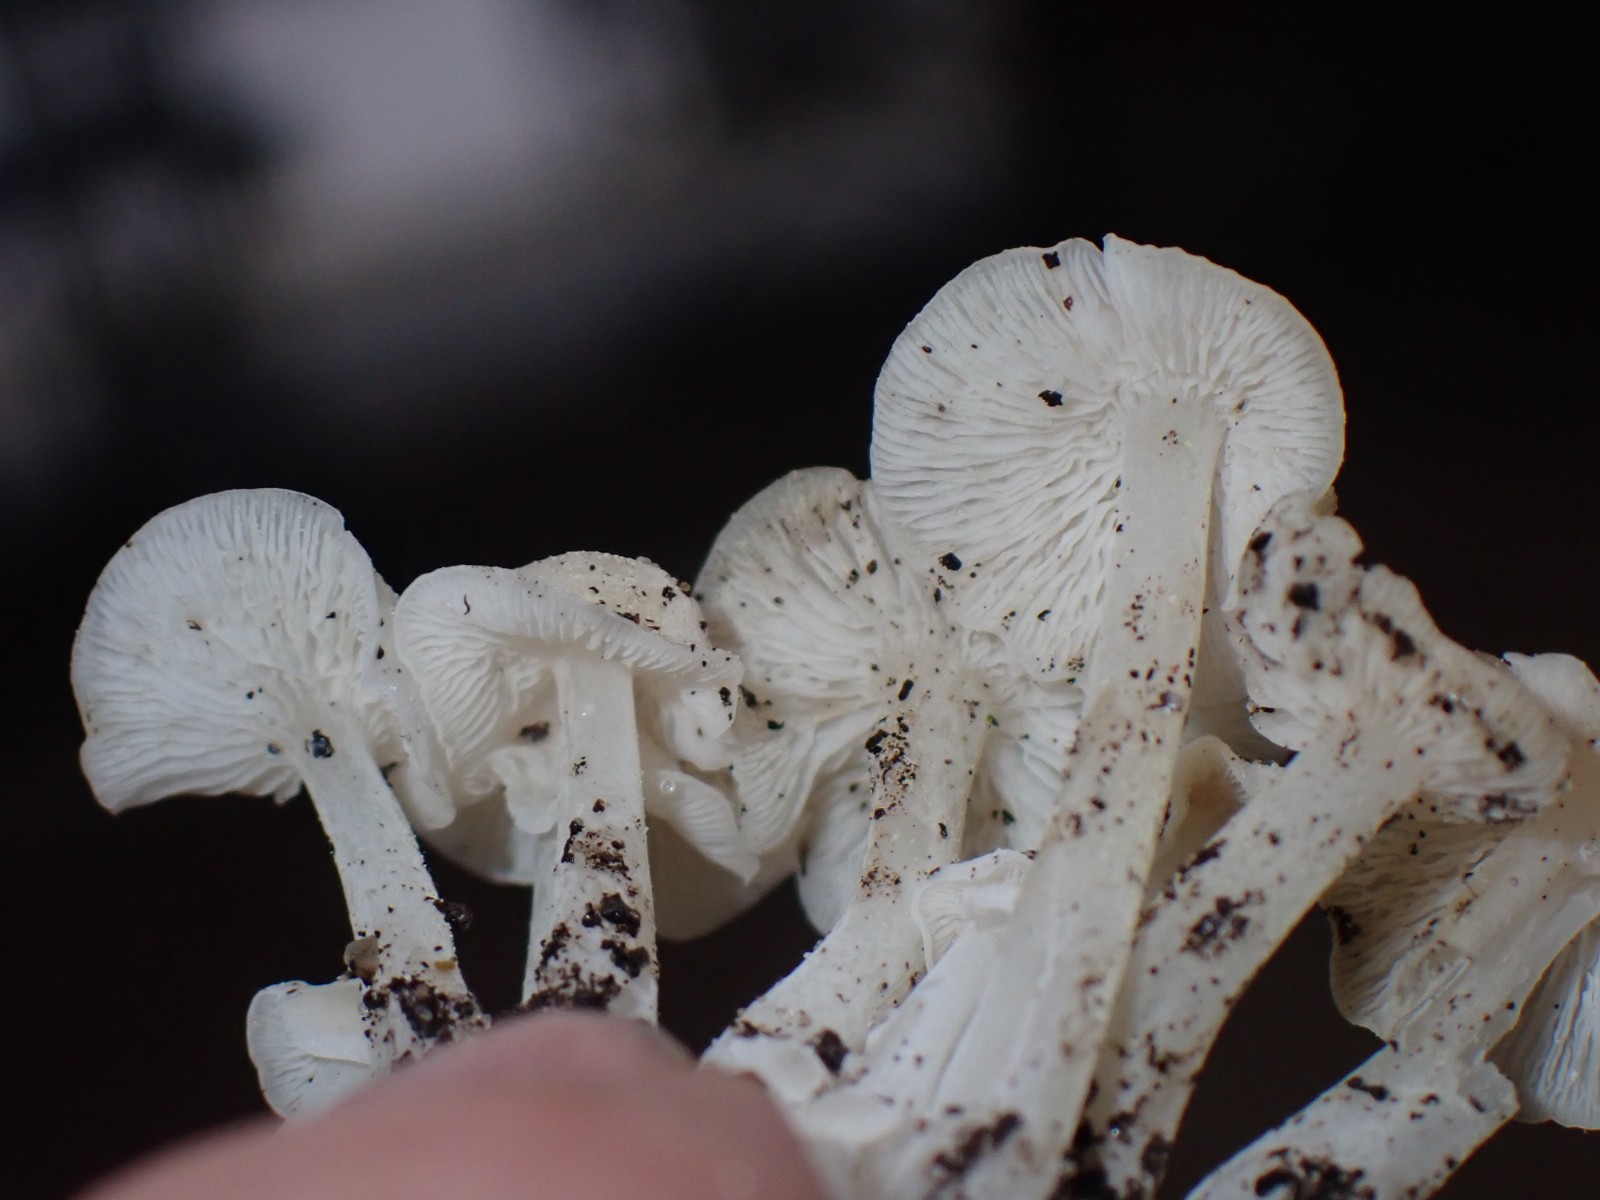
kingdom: Fungi
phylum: Basidiomycota
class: Agaricomycetes
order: Agaricales
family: Mycenaceae
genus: Hemimycena
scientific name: Hemimycena
